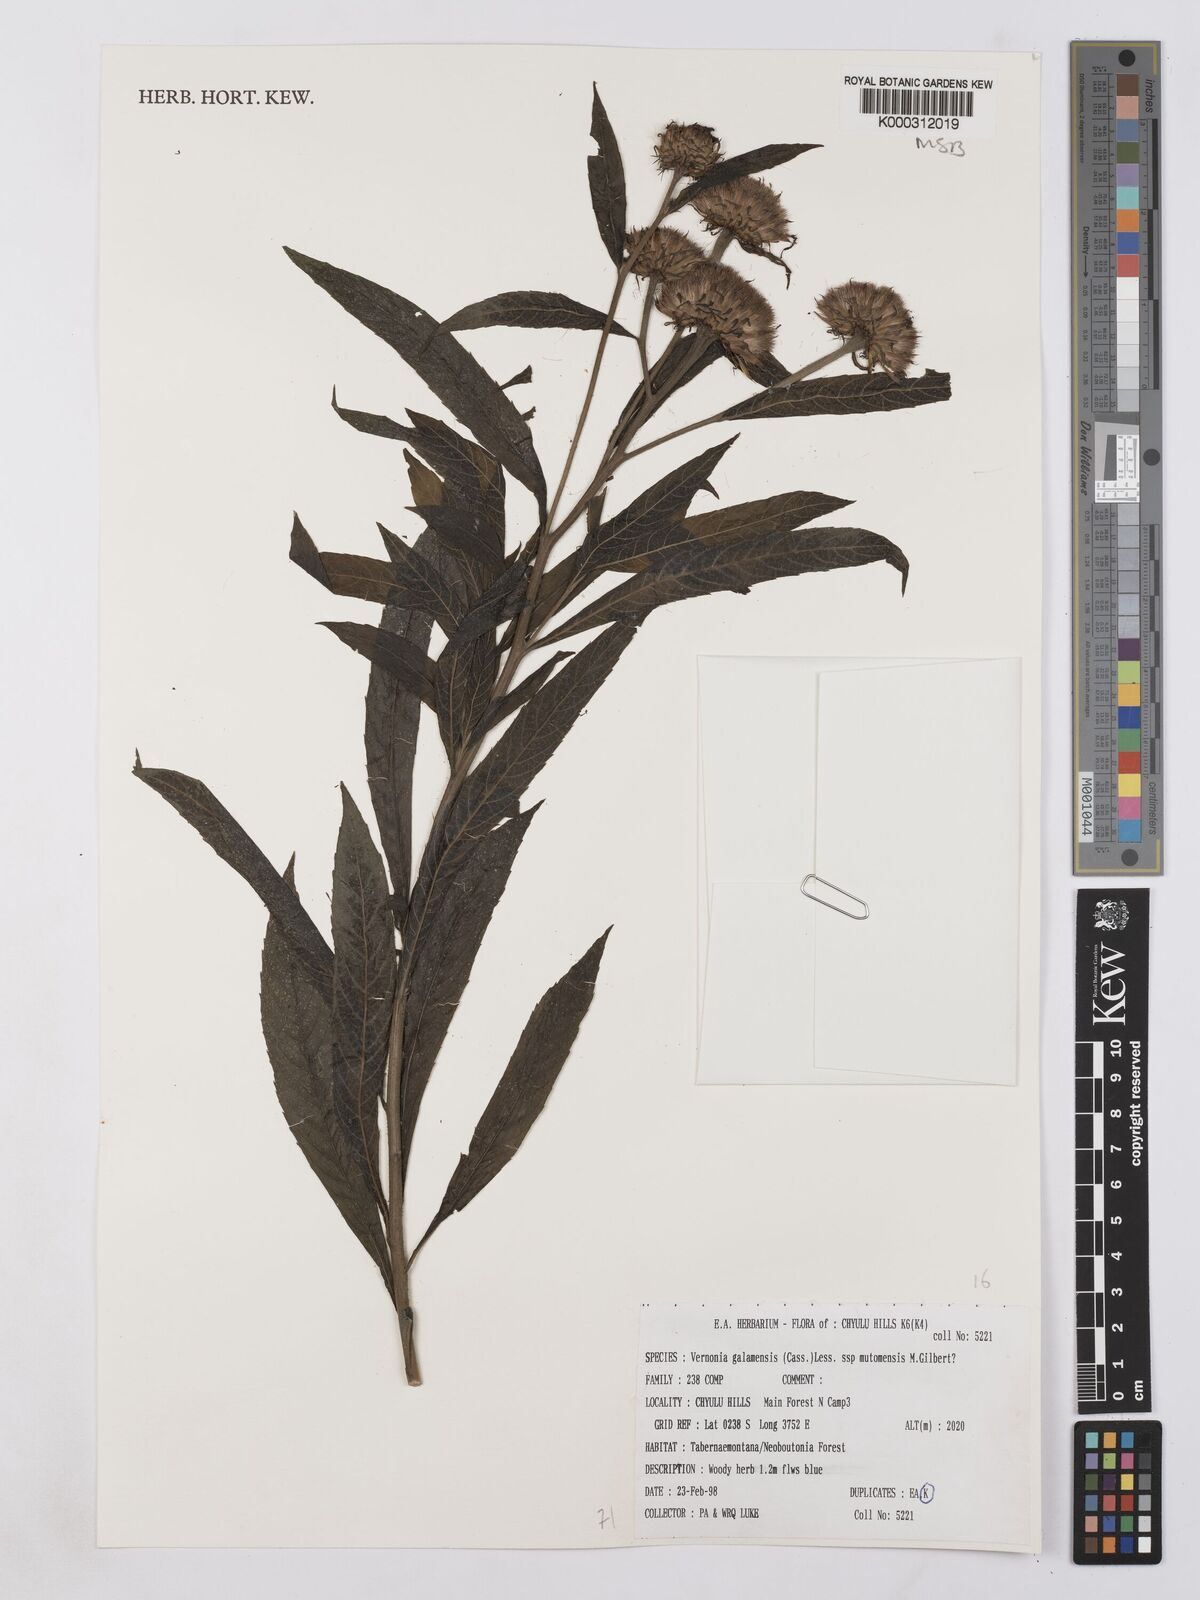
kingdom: Plantae
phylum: Tracheophyta
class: Magnoliopsida
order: Asterales
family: Asteraceae
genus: Vernonia
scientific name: Vernonia galamensis
